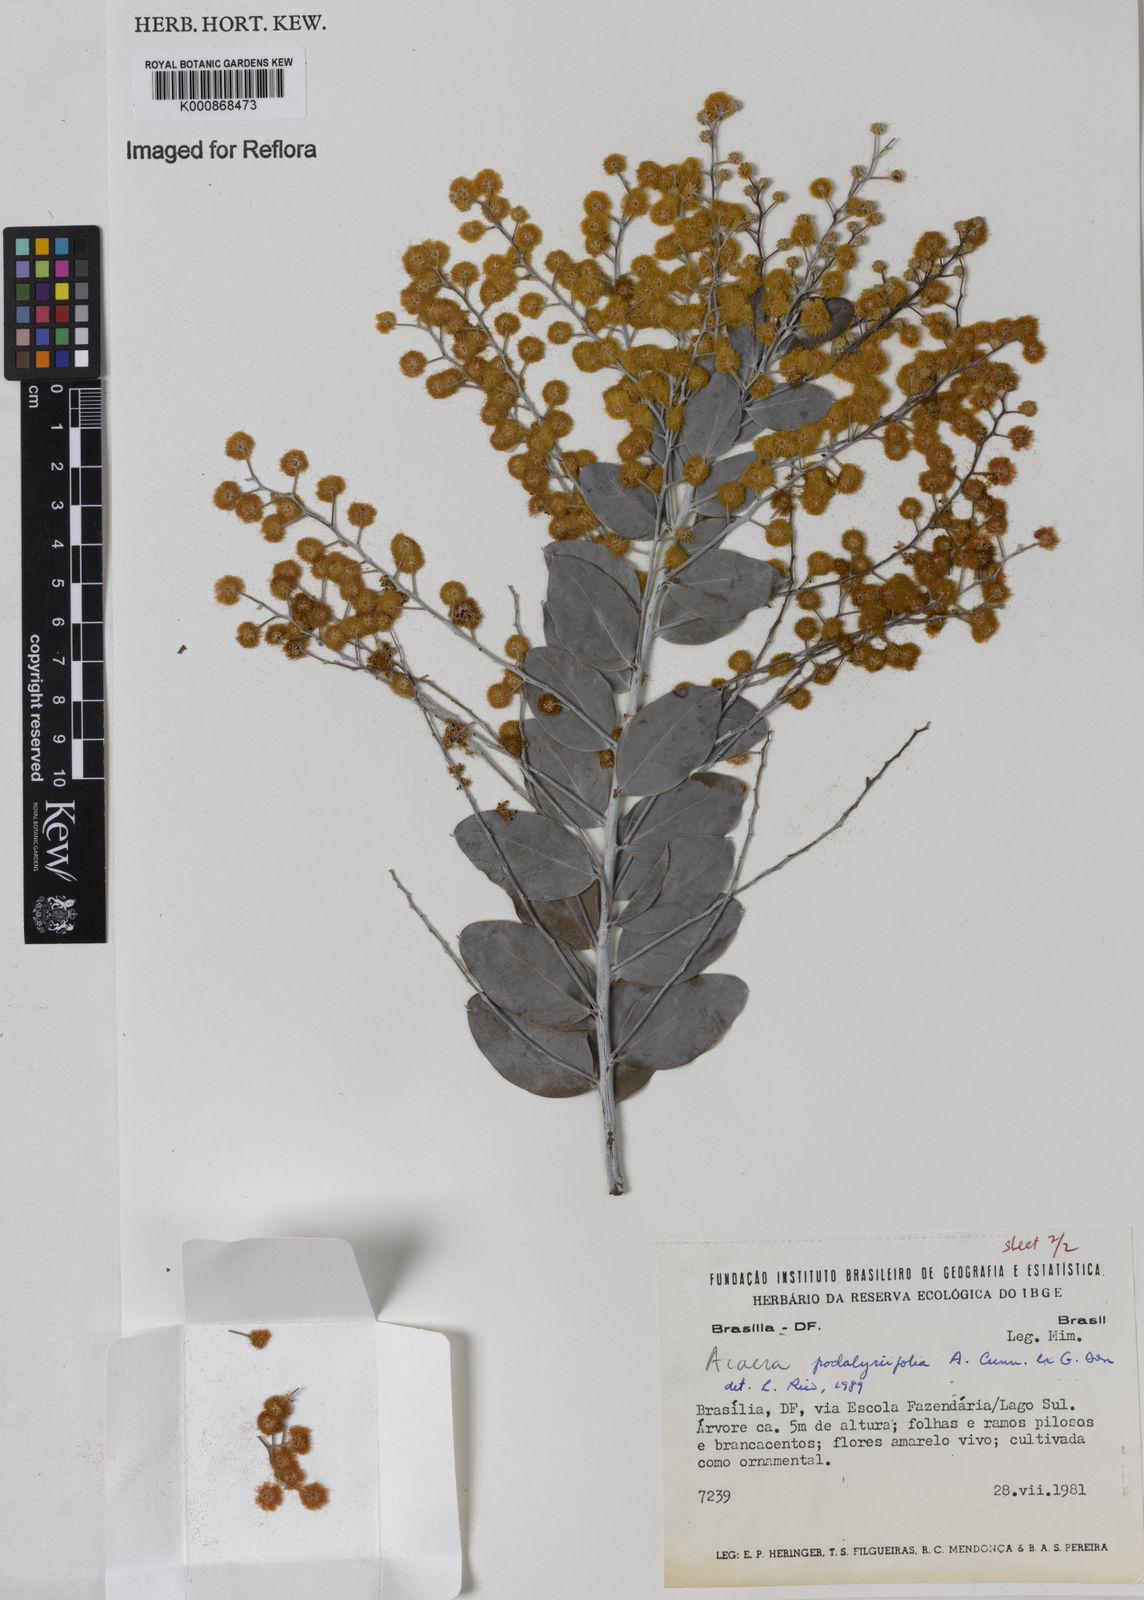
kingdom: Plantae
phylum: Tracheophyta
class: Magnoliopsida
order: Fabales
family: Fabaceae
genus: Acacia
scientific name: Acacia podalyriifolia
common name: Pearl wattle
